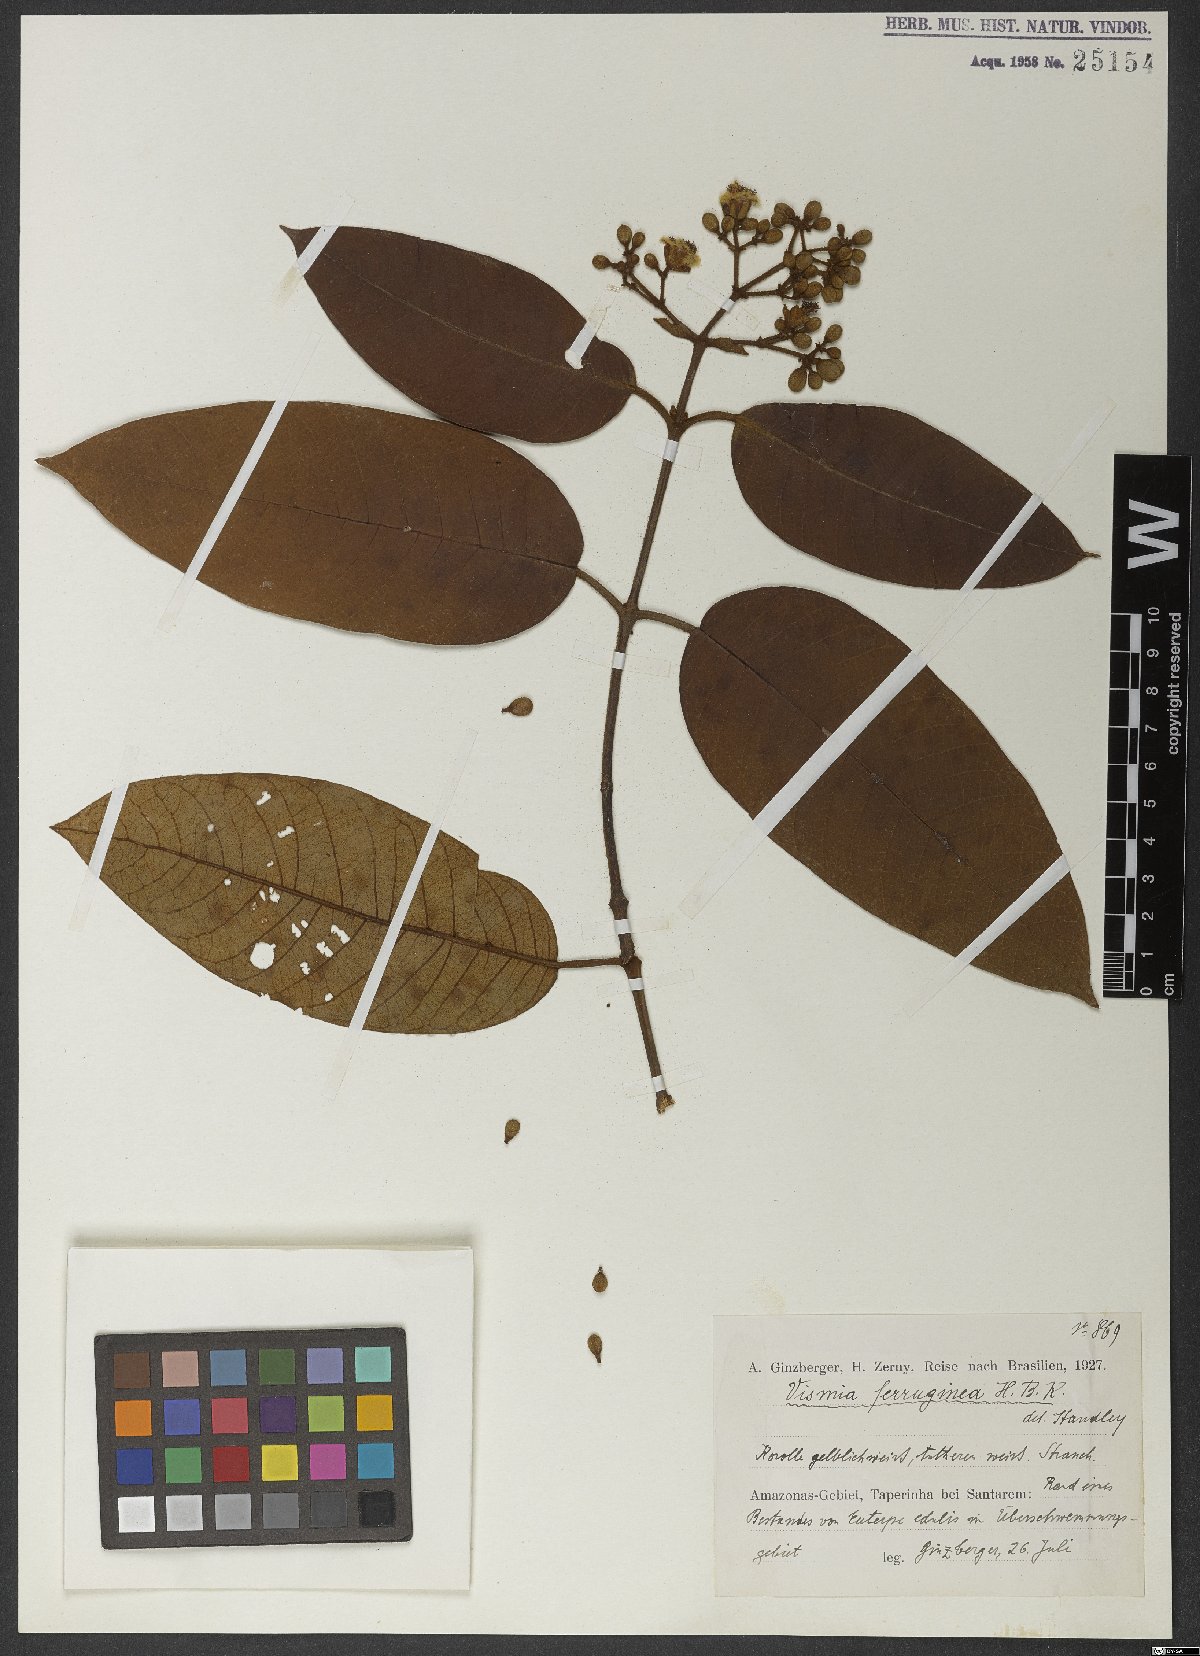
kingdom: Plantae
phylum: Tracheophyta
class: Magnoliopsida
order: Malpighiales
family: Hypericaceae
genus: Vismia
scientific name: Vismia macrophylla
